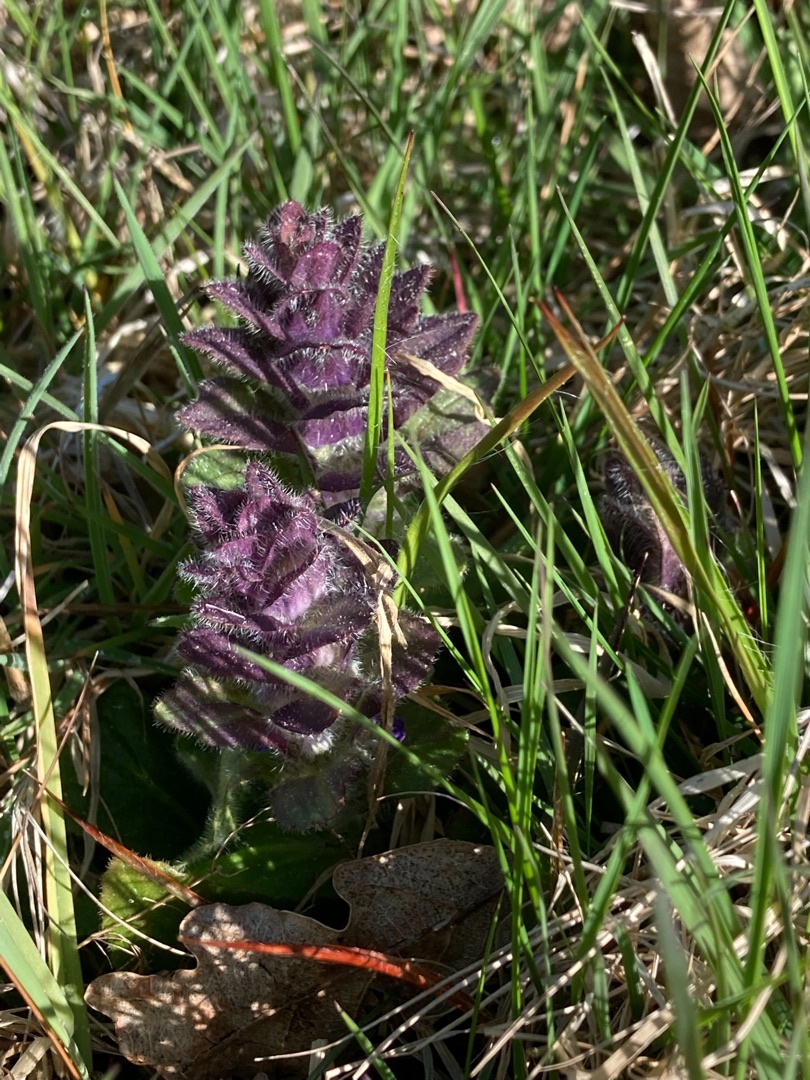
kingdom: Plantae
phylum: Tracheophyta
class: Magnoliopsida
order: Lamiales
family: Lamiaceae
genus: Ajuga
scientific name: Ajuga pyramidalis
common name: Pyramide-læbeløs
